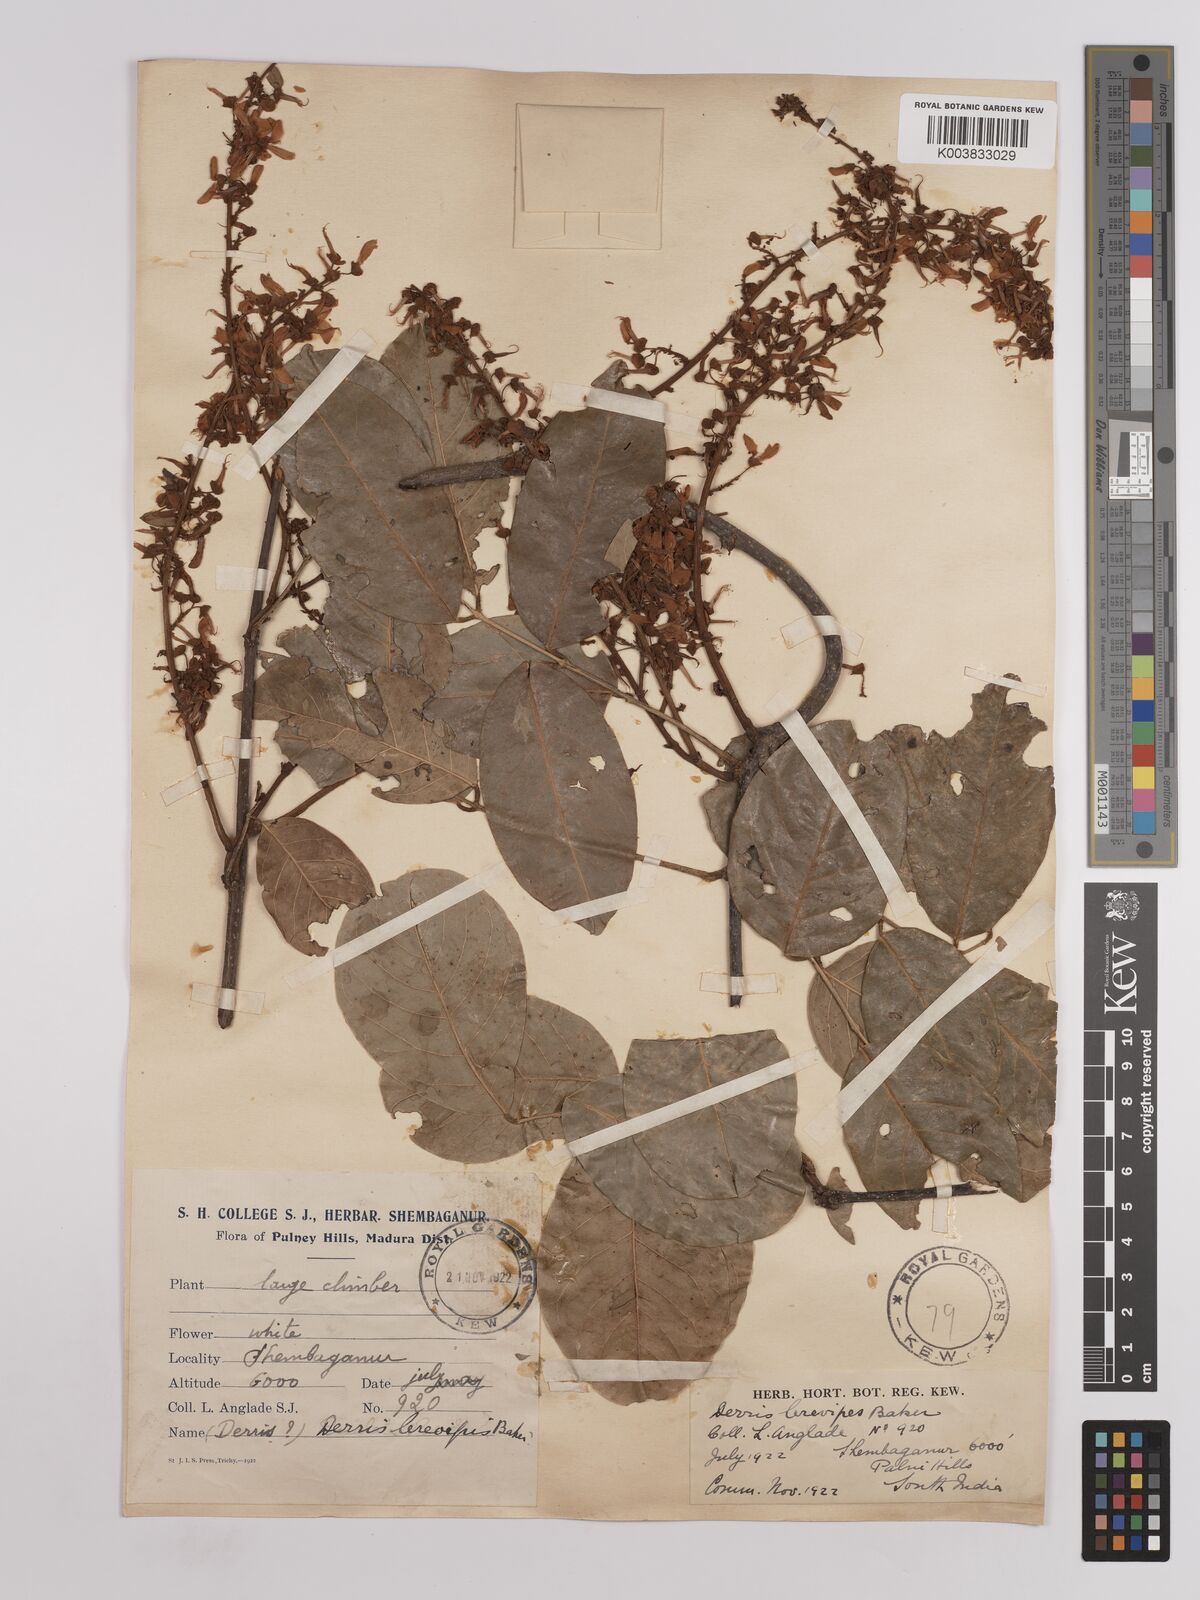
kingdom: Plantae
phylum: Tracheophyta
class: Magnoliopsida
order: Fabales
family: Fabaceae
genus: Derris
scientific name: Derris brevipes
